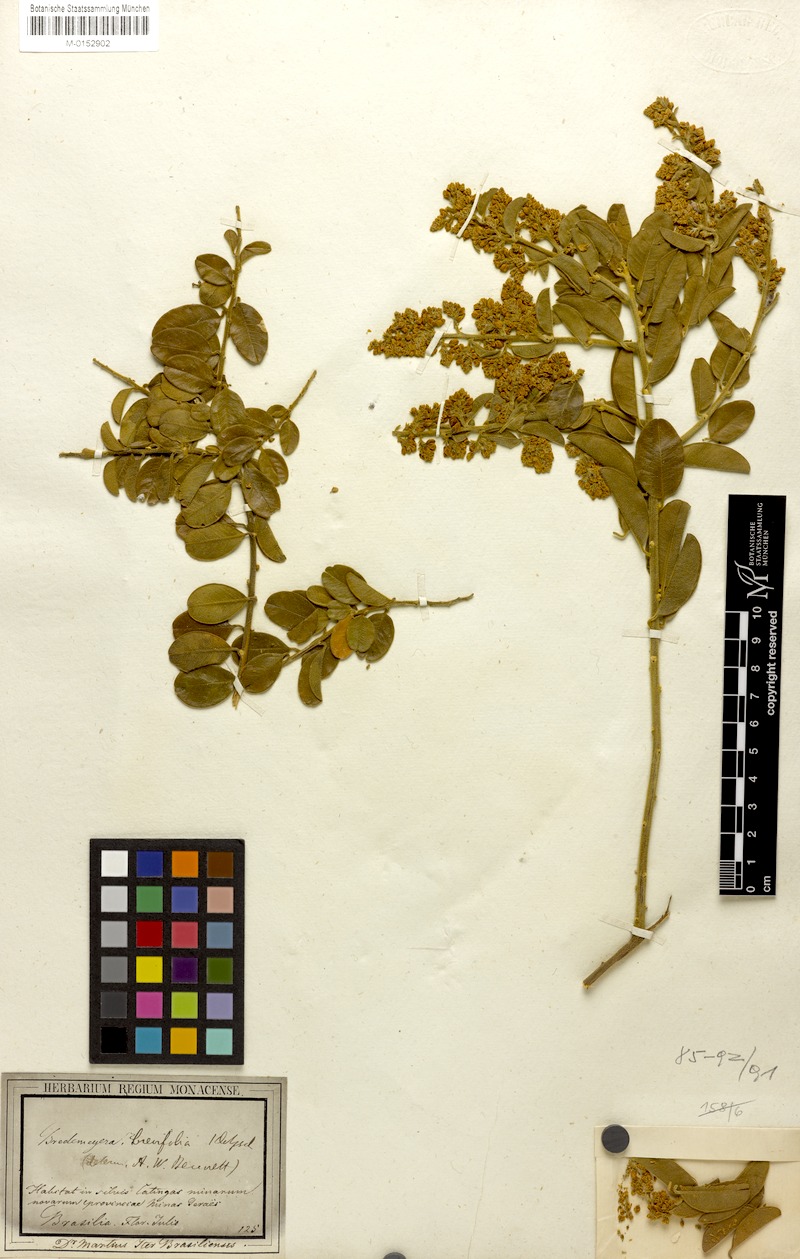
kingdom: Plantae
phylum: Tracheophyta
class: Magnoliopsida
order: Fabales
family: Polygalaceae
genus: Bredemeyera
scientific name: Bredemeyera brevifolia
